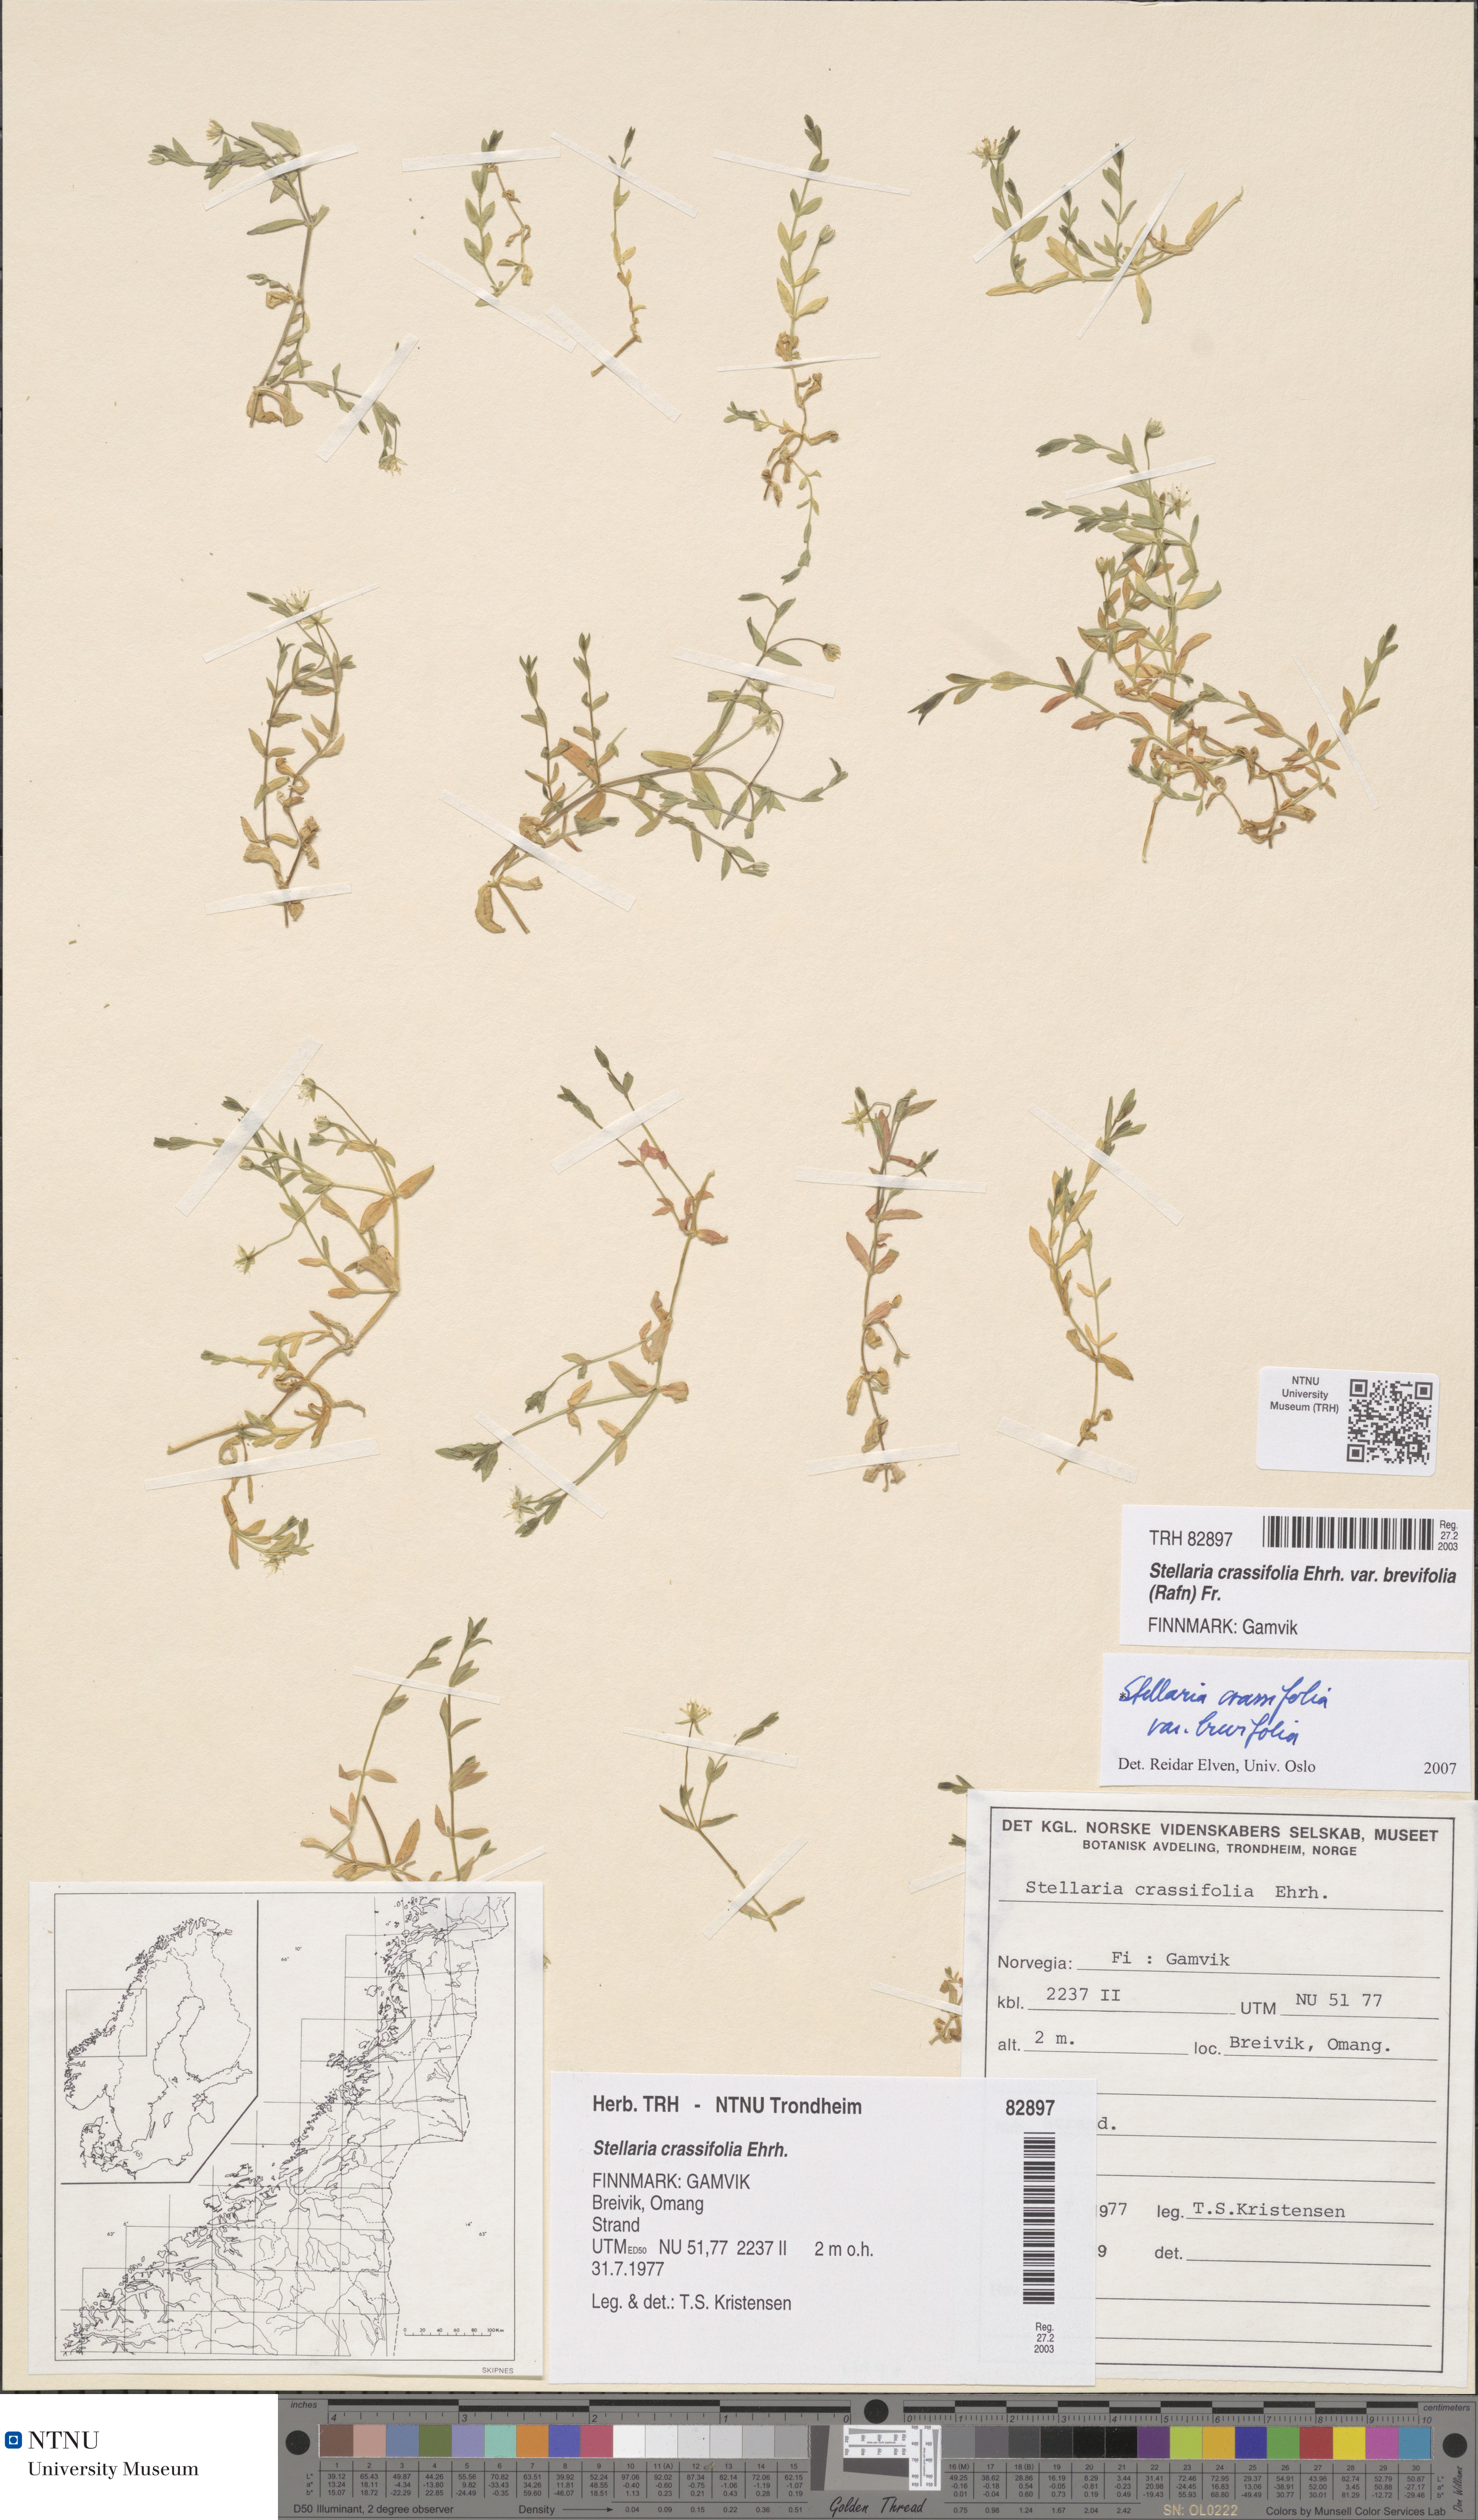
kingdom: Plantae
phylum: Tracheophyta
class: Magnoliopsida
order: Caryophyllales
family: Caryophyllaceae
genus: Stellaria
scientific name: Stellaria crassifolia
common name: Fleshy starwort
